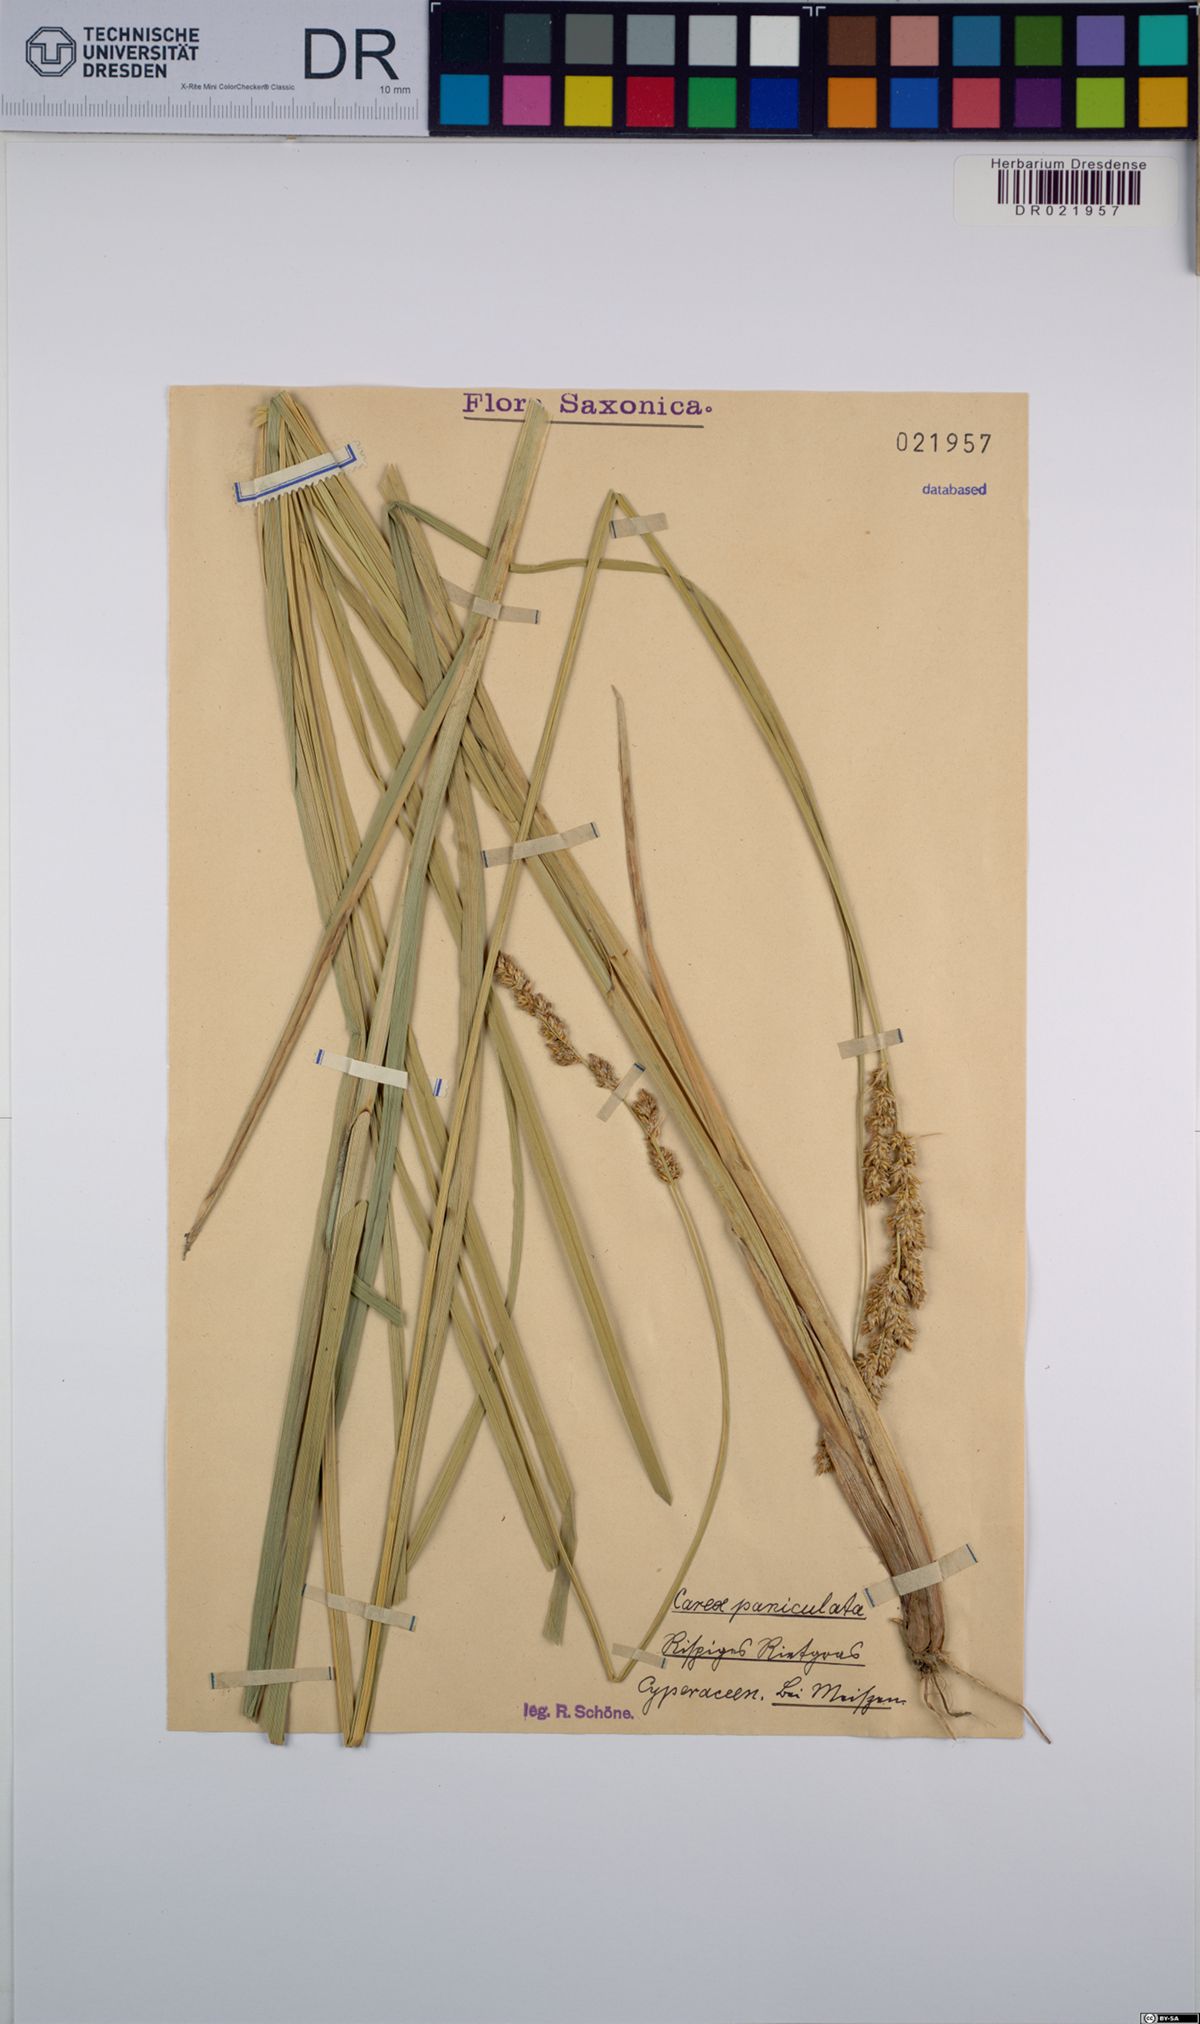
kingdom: Plantae
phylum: Tracheophyta
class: Liliopsida
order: Poales
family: Cyperaceae
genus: Carex
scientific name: Carex paniculata
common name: Greater tussock-sedge
